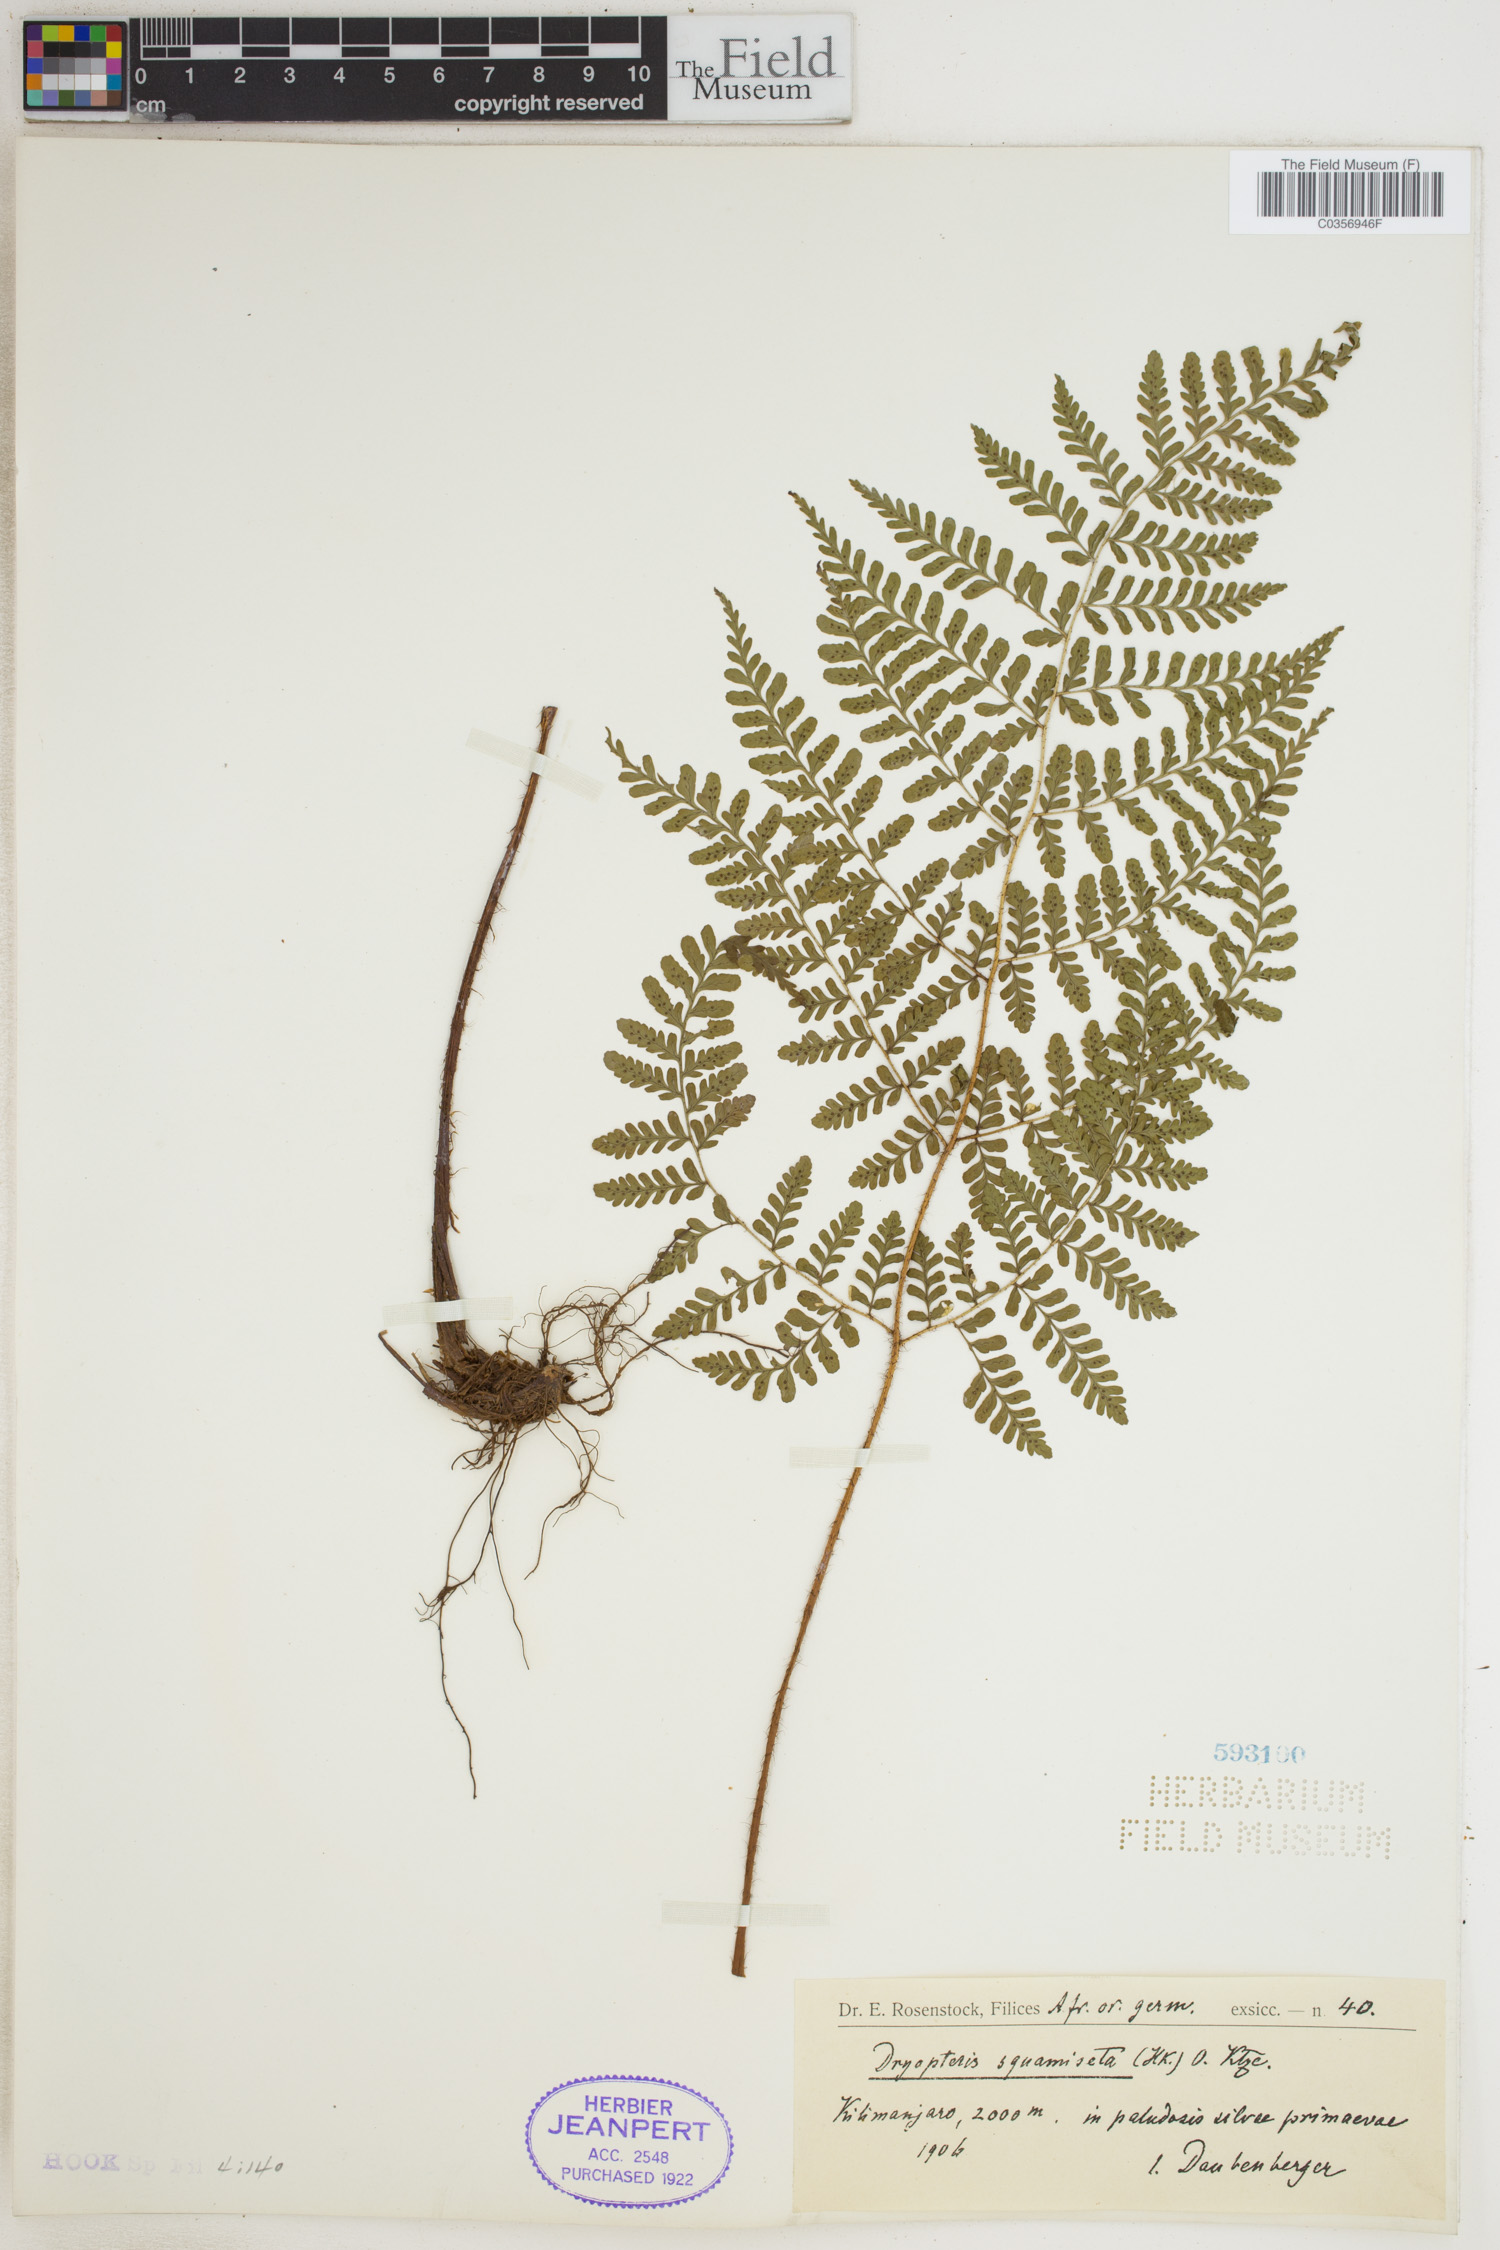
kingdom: Plantae
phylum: Tracheophyta
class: Polypodiopsida
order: Polypodiales
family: Dryopteridaceae
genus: Dryopteris
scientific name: Dryopteris squamiseta
